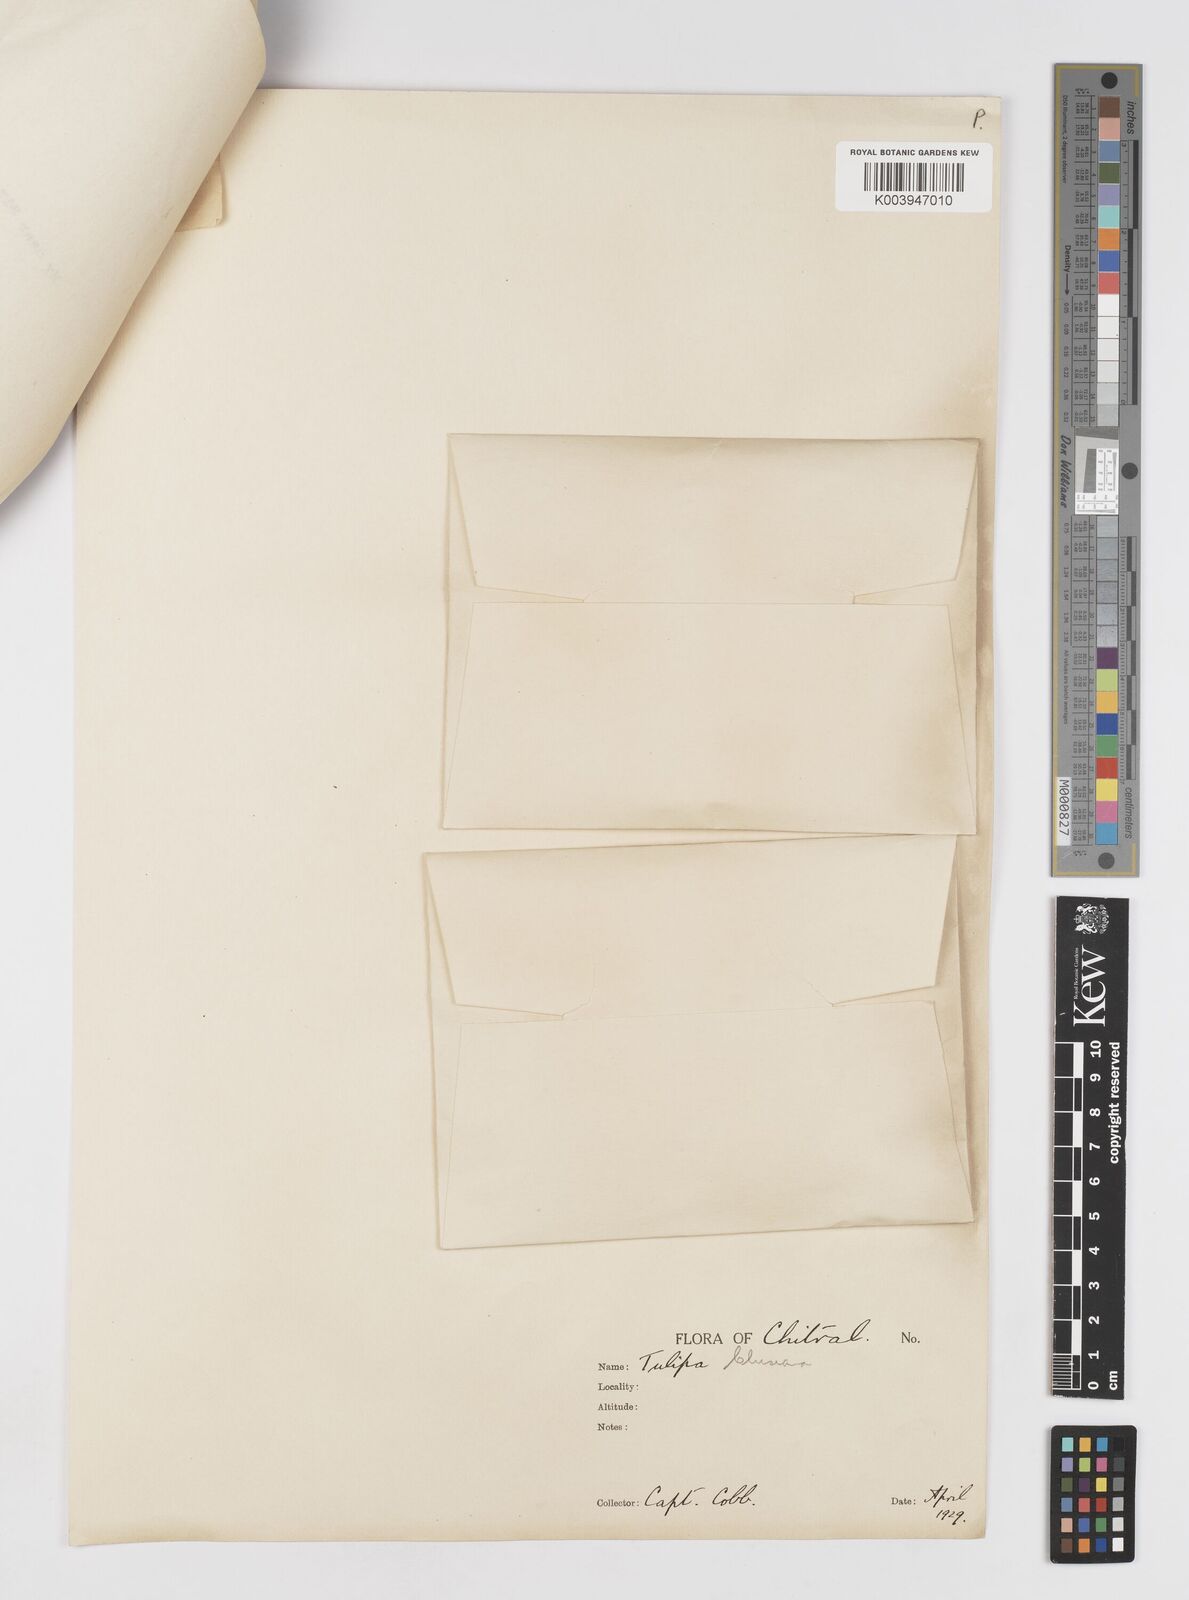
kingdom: Plantae
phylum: Tracheophyta
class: Liliopsida
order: Liliales
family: Liliaceae
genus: Tulipa
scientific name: Tulipa clusiana
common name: Lady tulip
